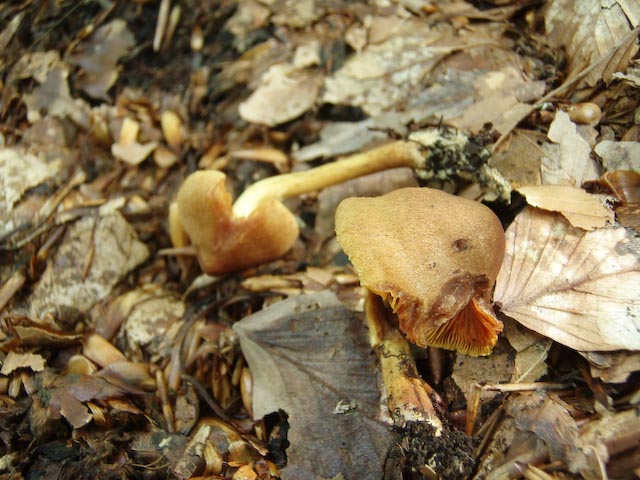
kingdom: Fungi
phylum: Basidiomycota
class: Agaricomycetes
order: Agaricales
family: Cortinariaceae
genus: Cortinarius
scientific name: Cortinarius cinnamomeus
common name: kanel-slørhat
